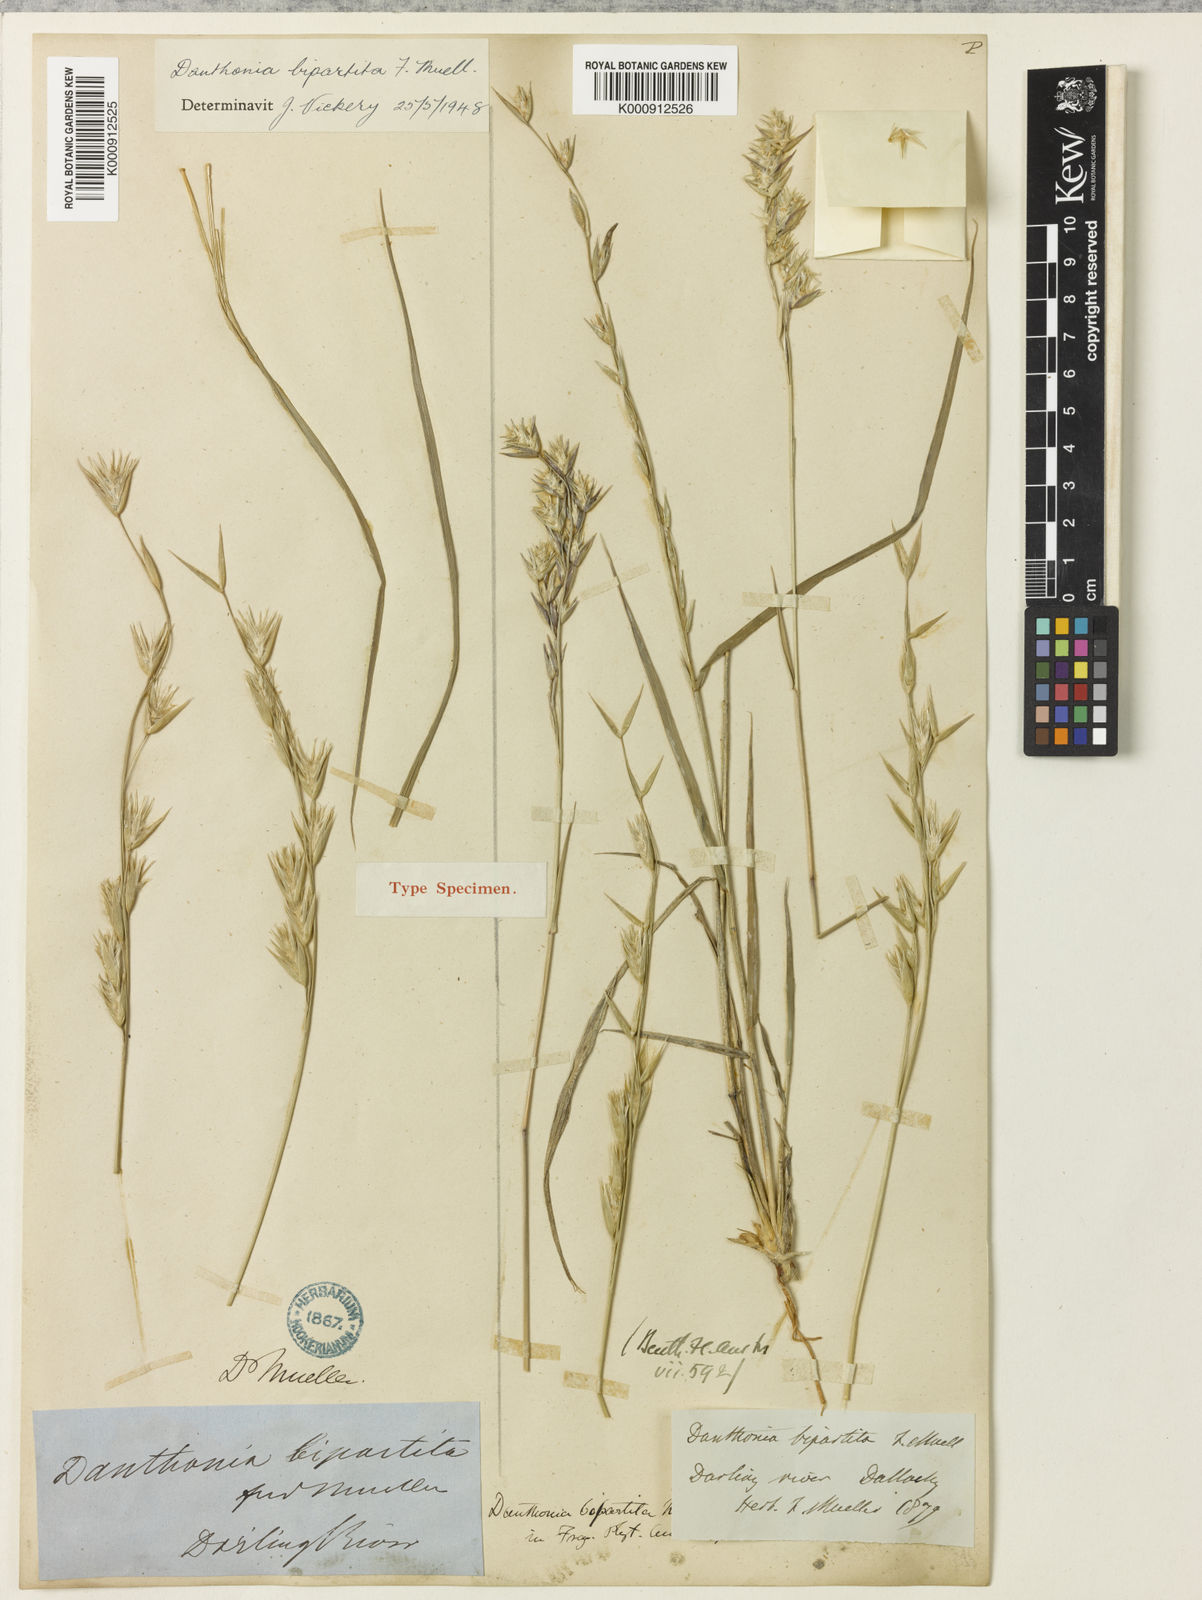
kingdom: Plantae
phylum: Tracheophyta
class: Liliopsida
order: Poales
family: Poaceae
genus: Monachather
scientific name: Monachather paradoxus
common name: Bandicoot grass
